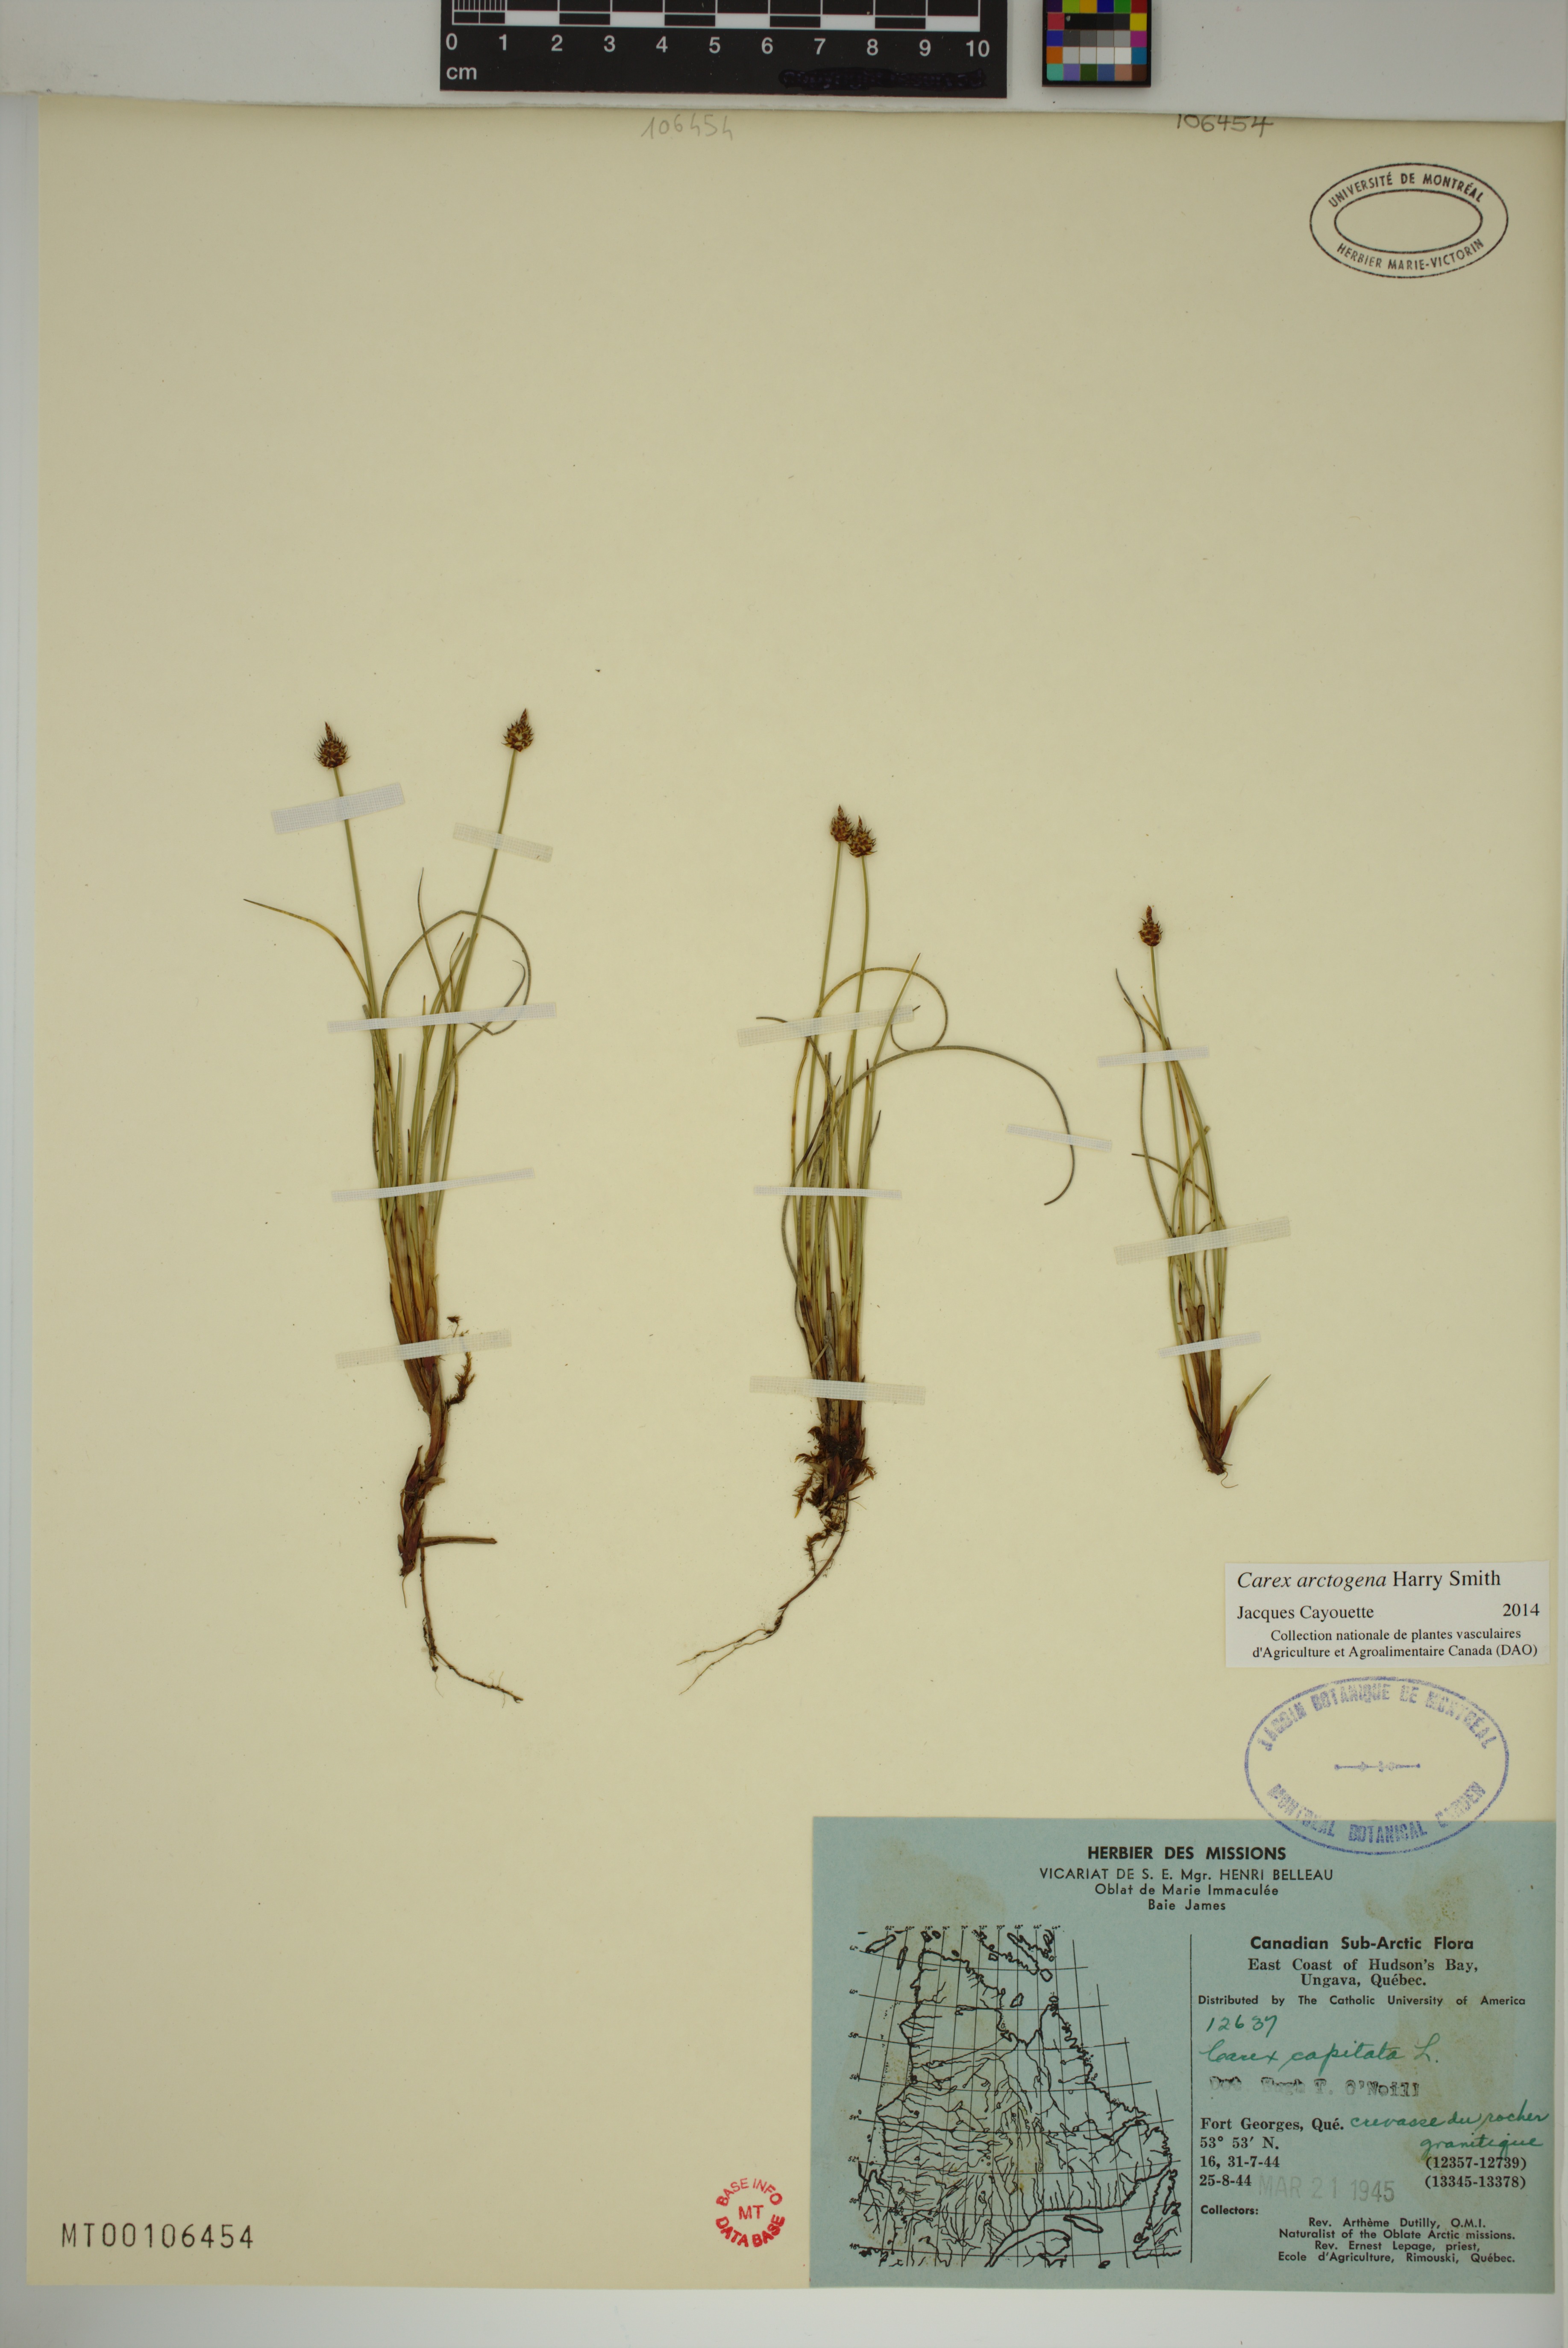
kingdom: Plantae
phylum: Tracheophyta
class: Liliopsida
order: Poales
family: Cyperaceae
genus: Carex
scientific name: Carex arctogena
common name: Black sedge
